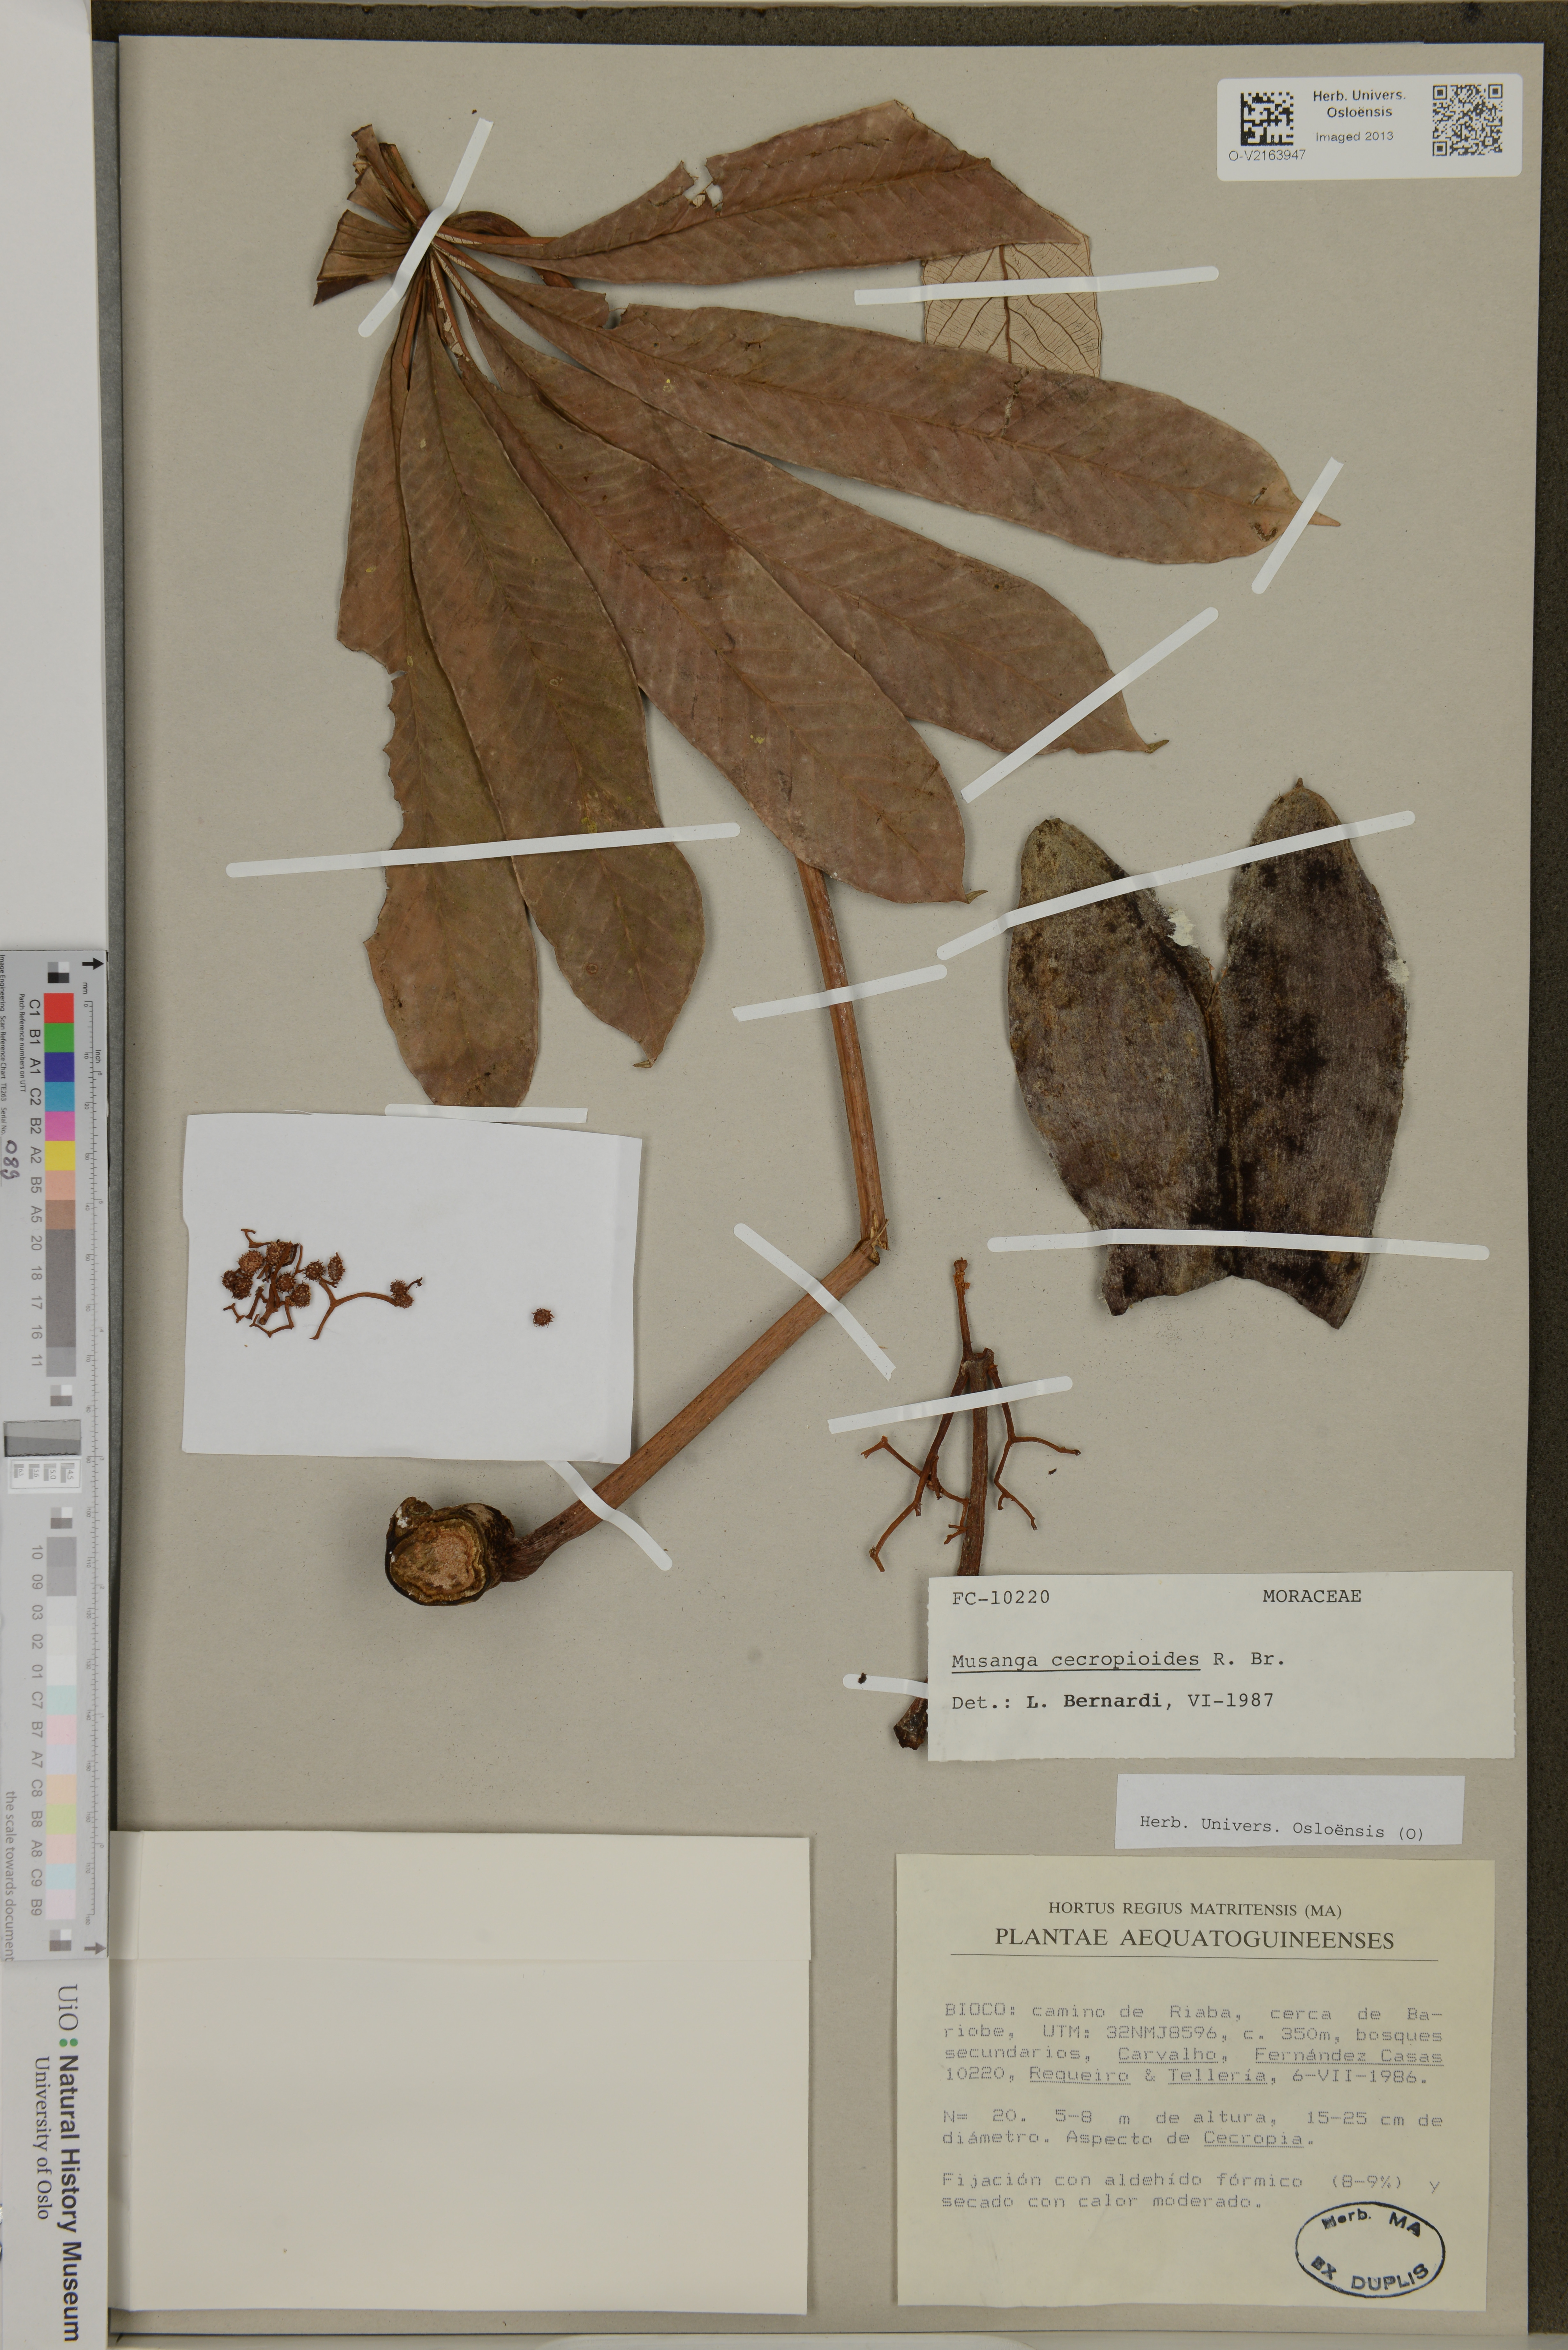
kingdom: Plantae
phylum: Tracheophyta
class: Magnoliopsida
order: Rosales
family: Urticaceae
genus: Musanga
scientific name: Musanga cecropioides
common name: African corkwood
